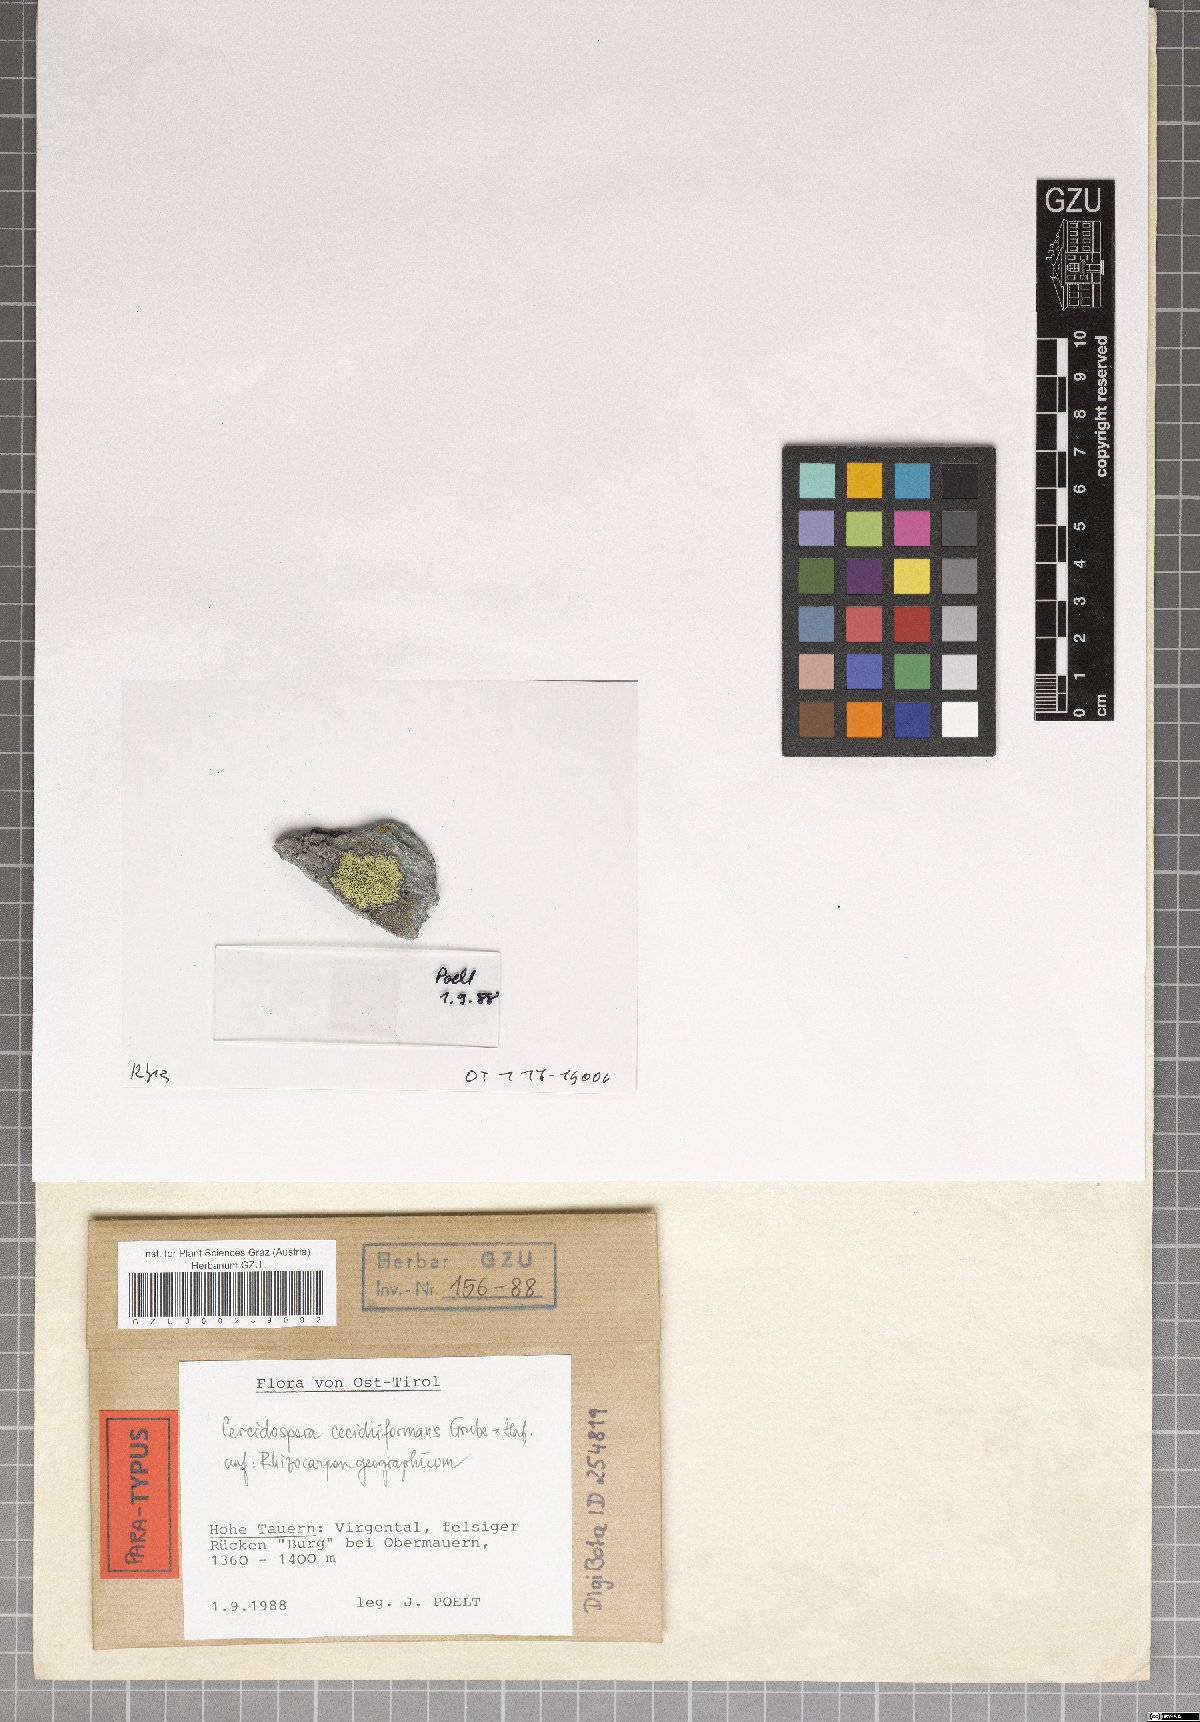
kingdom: Fungi
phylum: Ascomycota
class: Dothideomycetes
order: Dothideales
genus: Cercidospora
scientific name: Cercidospora cecidiiformans
